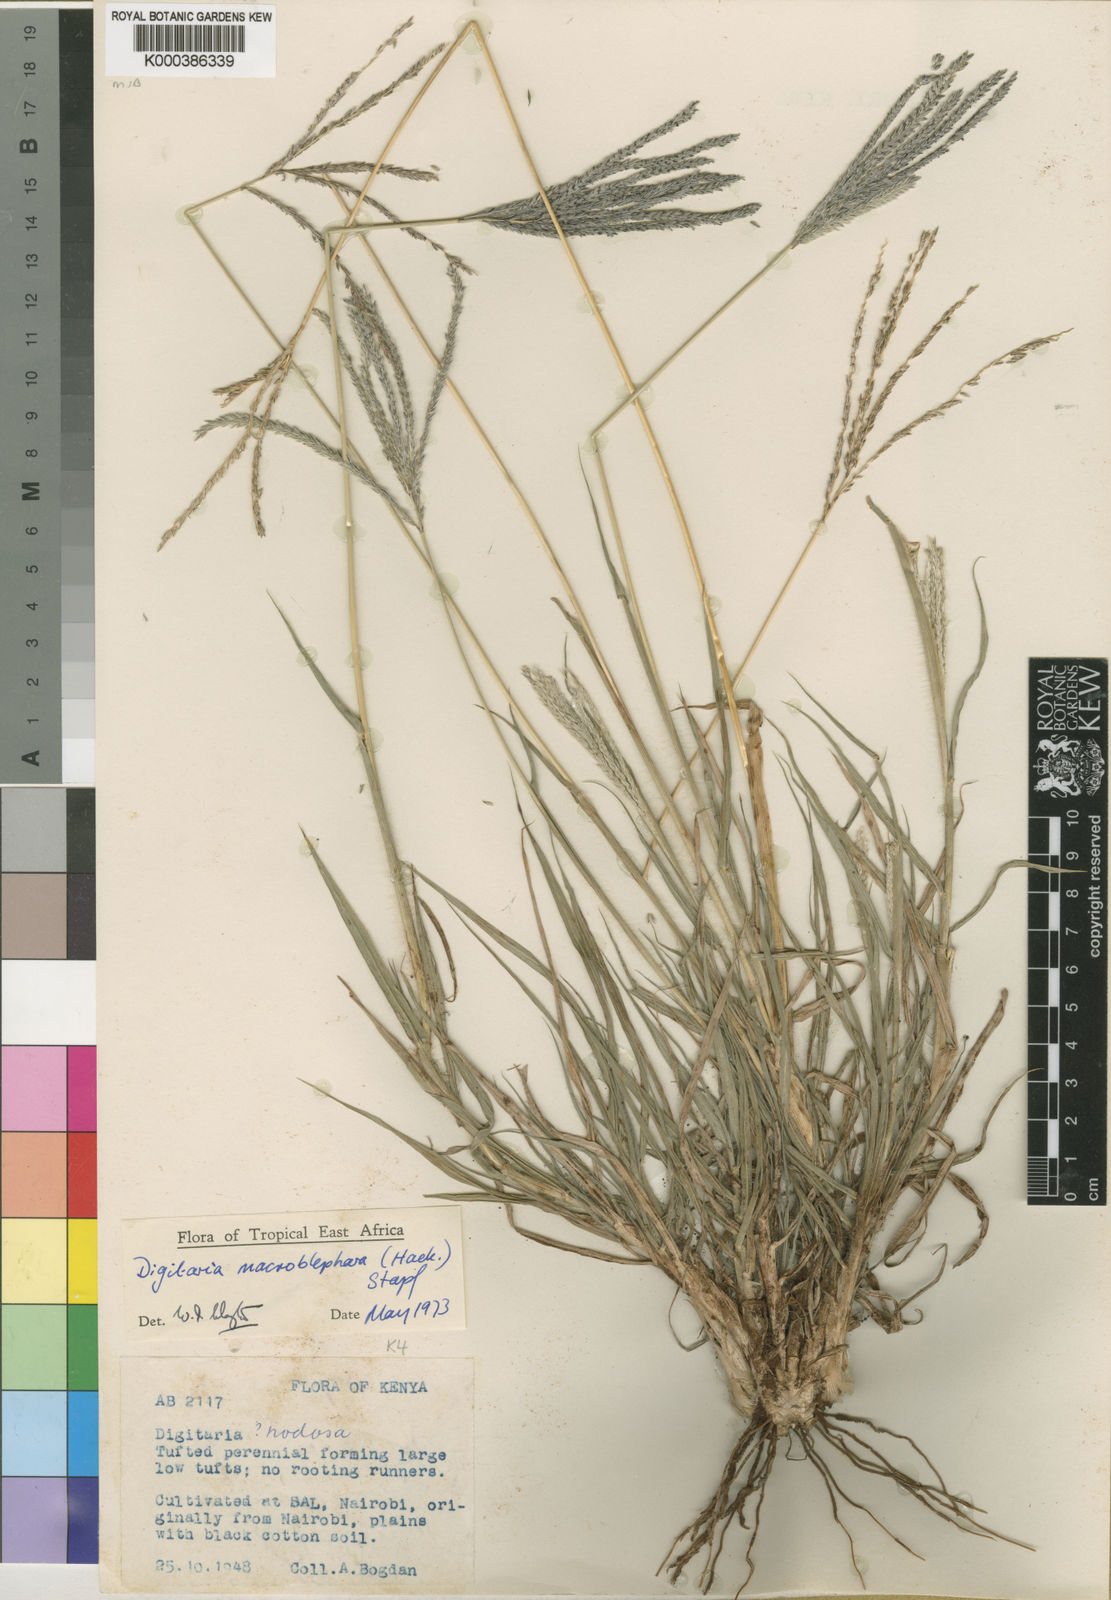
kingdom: Plantae
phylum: Tracheophyta
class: Liliopsida
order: Poales
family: Poaceae
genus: Digitaria
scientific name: Digitaria macroblephara
